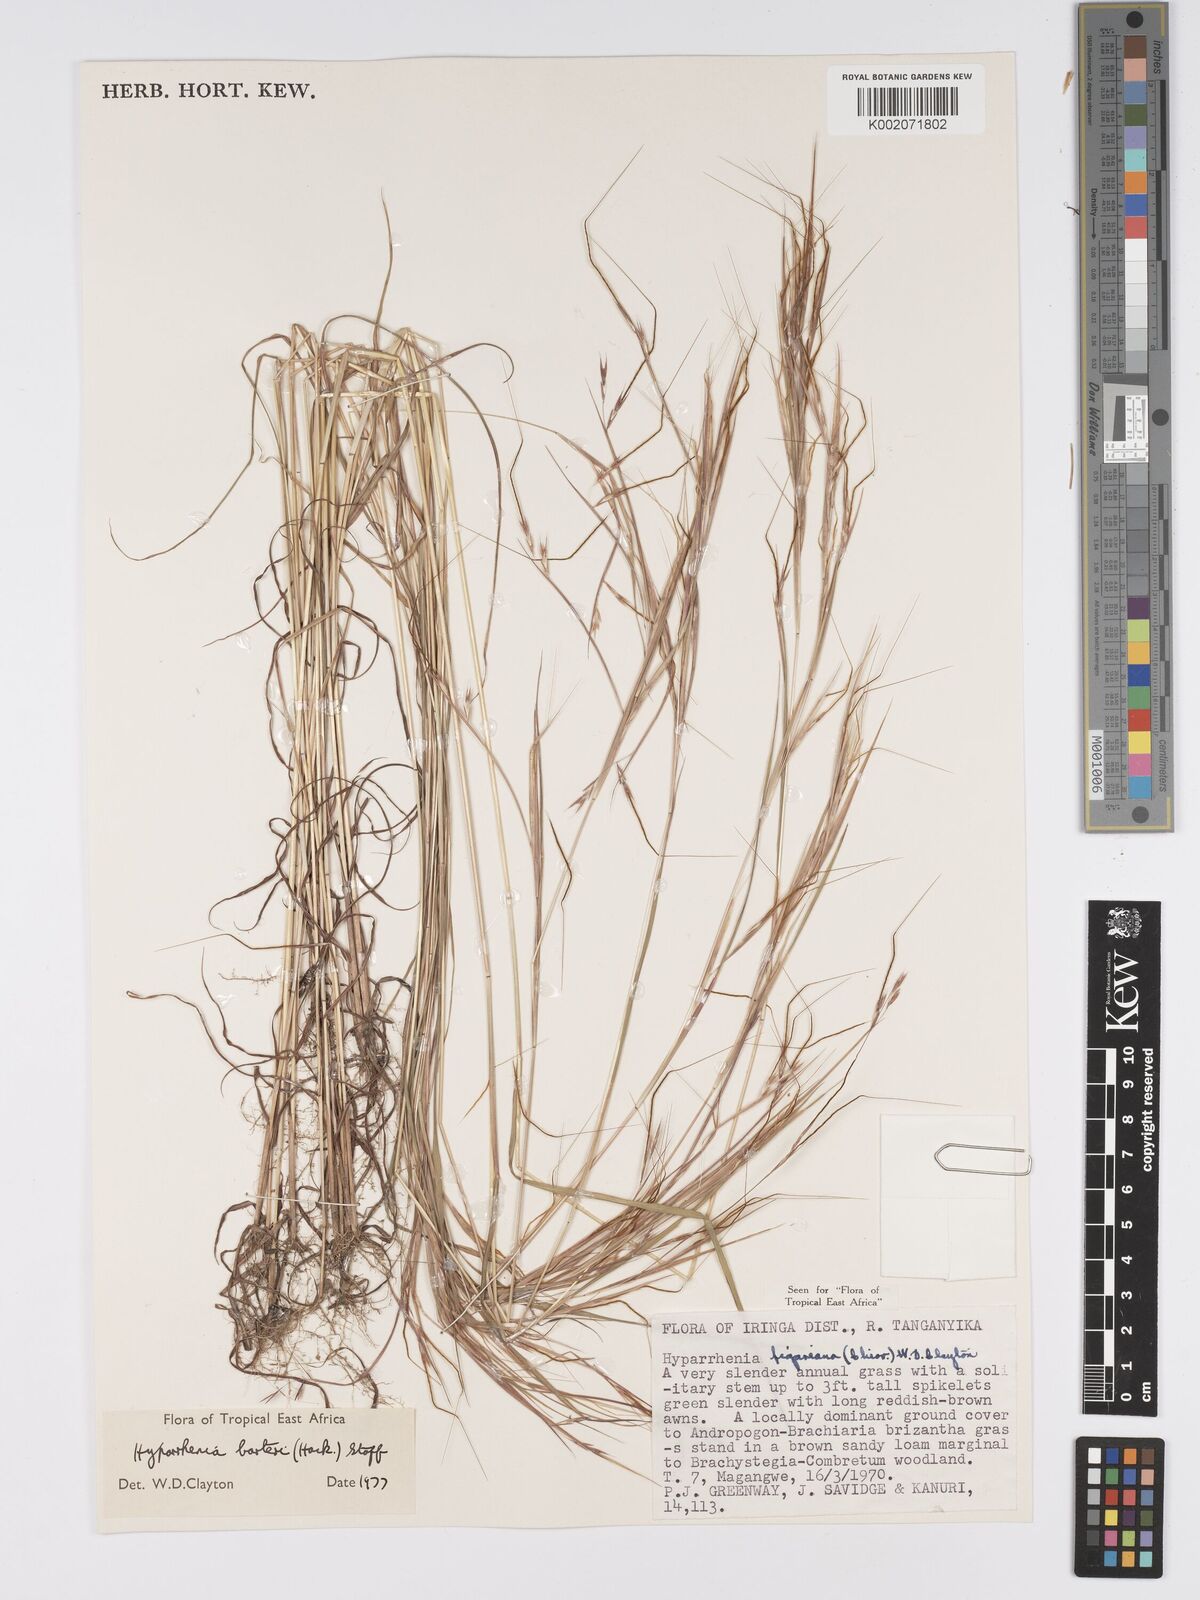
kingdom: Plantae
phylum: Tracheophyta
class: Liliopsida
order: Poales
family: Poaceae
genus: Hyparrhenia
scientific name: Hyparrhenia barteri
